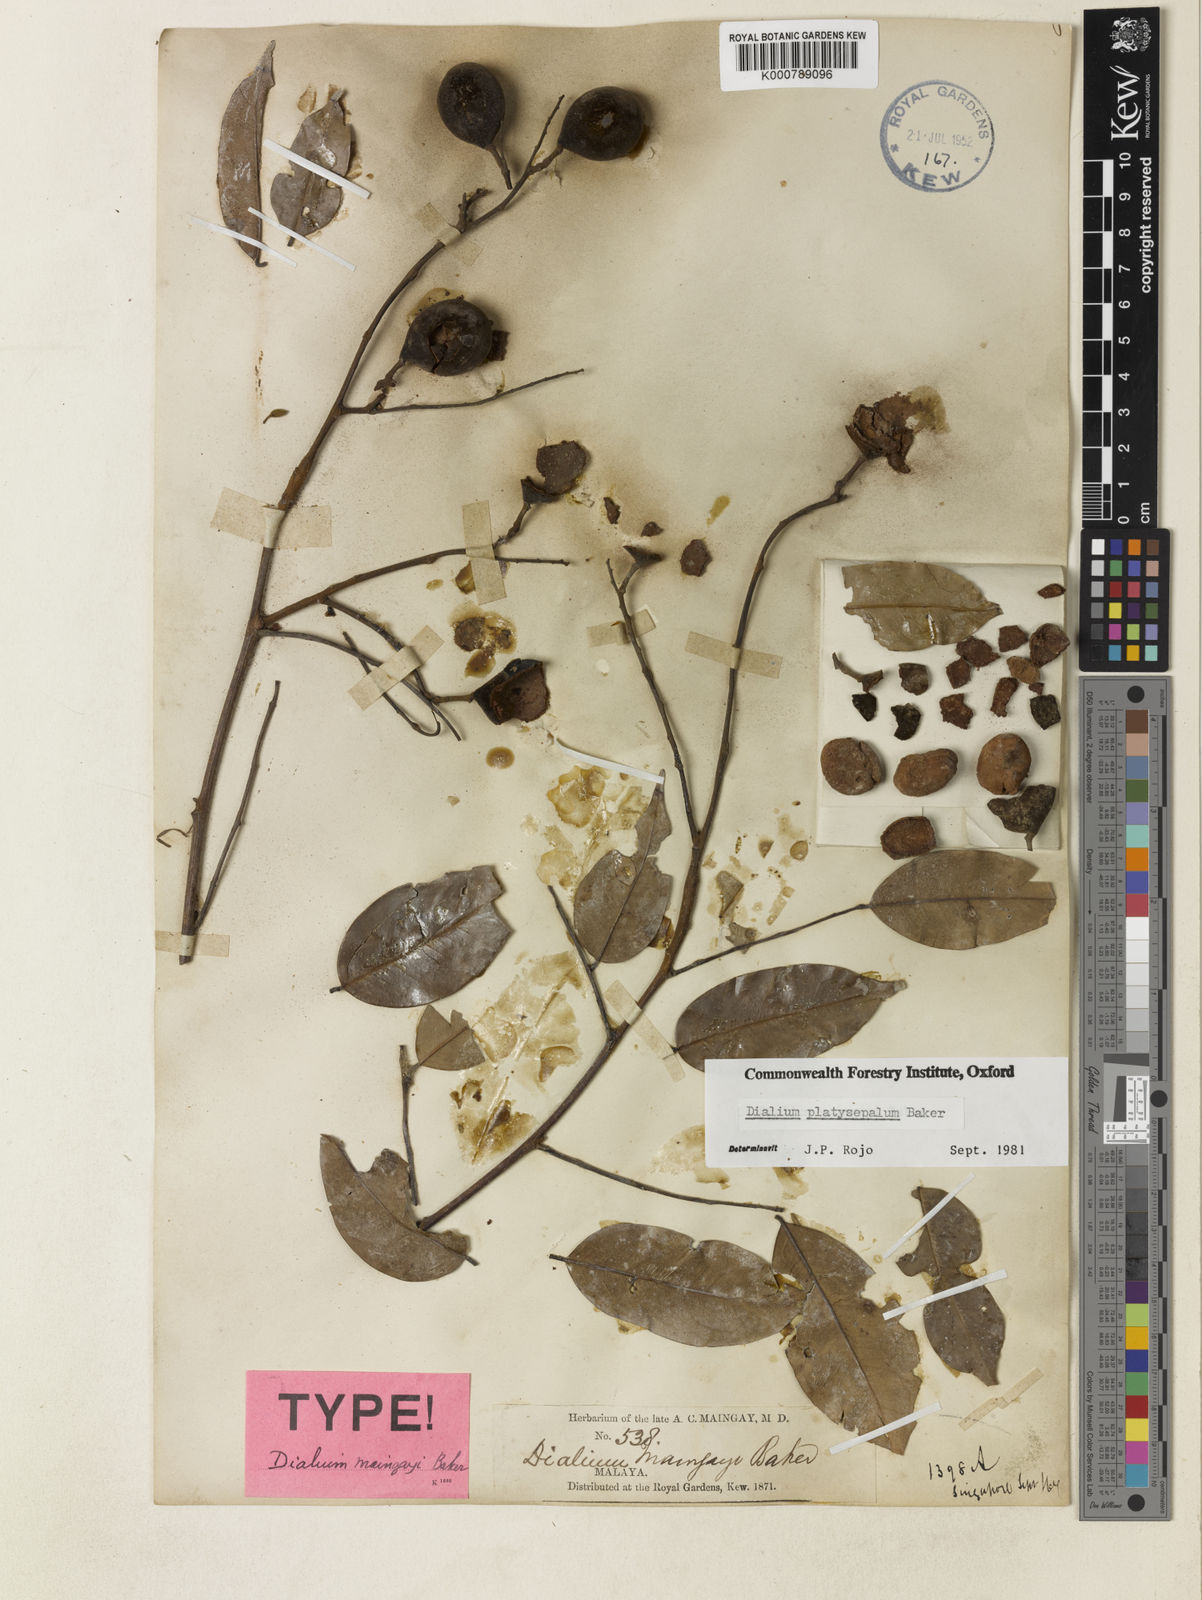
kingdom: Plantae
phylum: Tracheophyta
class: Magnoliopsida
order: Fabales
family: Fabaceae
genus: Dialium
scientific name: Dialium platysepalum
